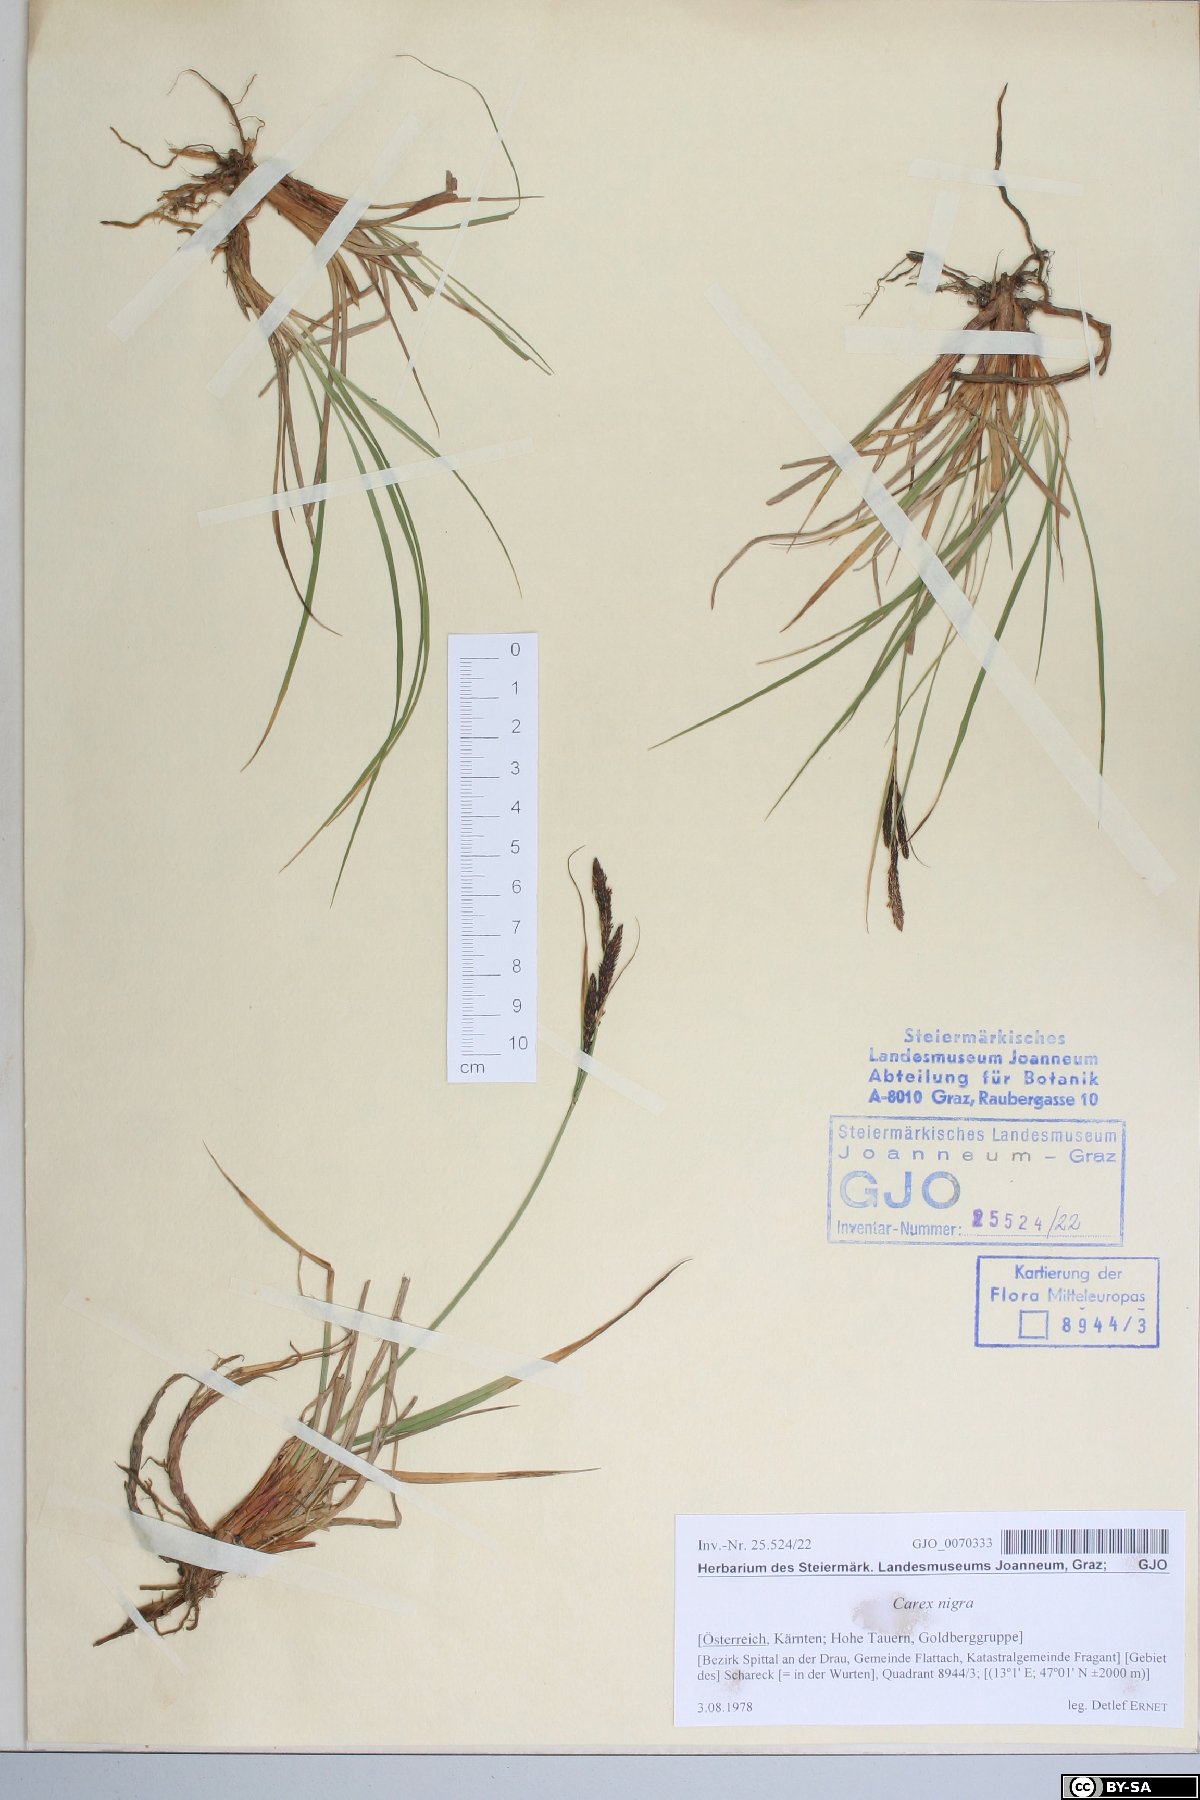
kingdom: Plantae
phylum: Tracheophyta
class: Liliopsida
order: Poales
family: Cyperaceae
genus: Carex
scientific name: Carex nigra
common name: Common sedge
